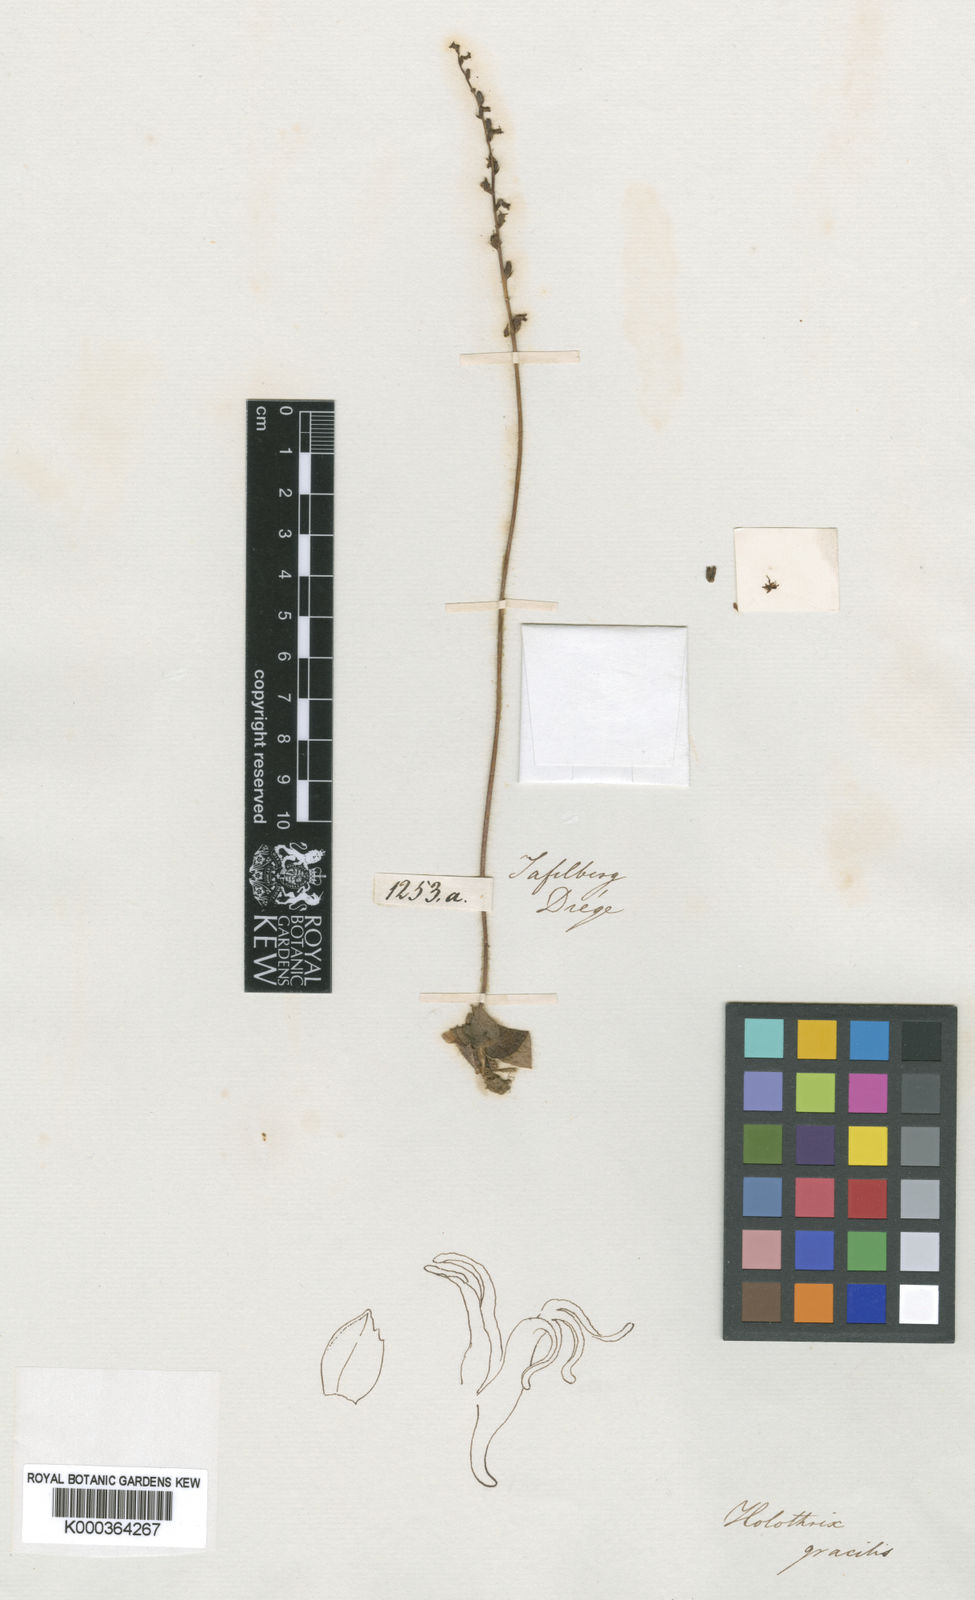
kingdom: Plantae
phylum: Tracheophyta
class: Liliopsida
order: Asparagales
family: Orchidaceae
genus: Holothrix
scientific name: Holothrix cernua
